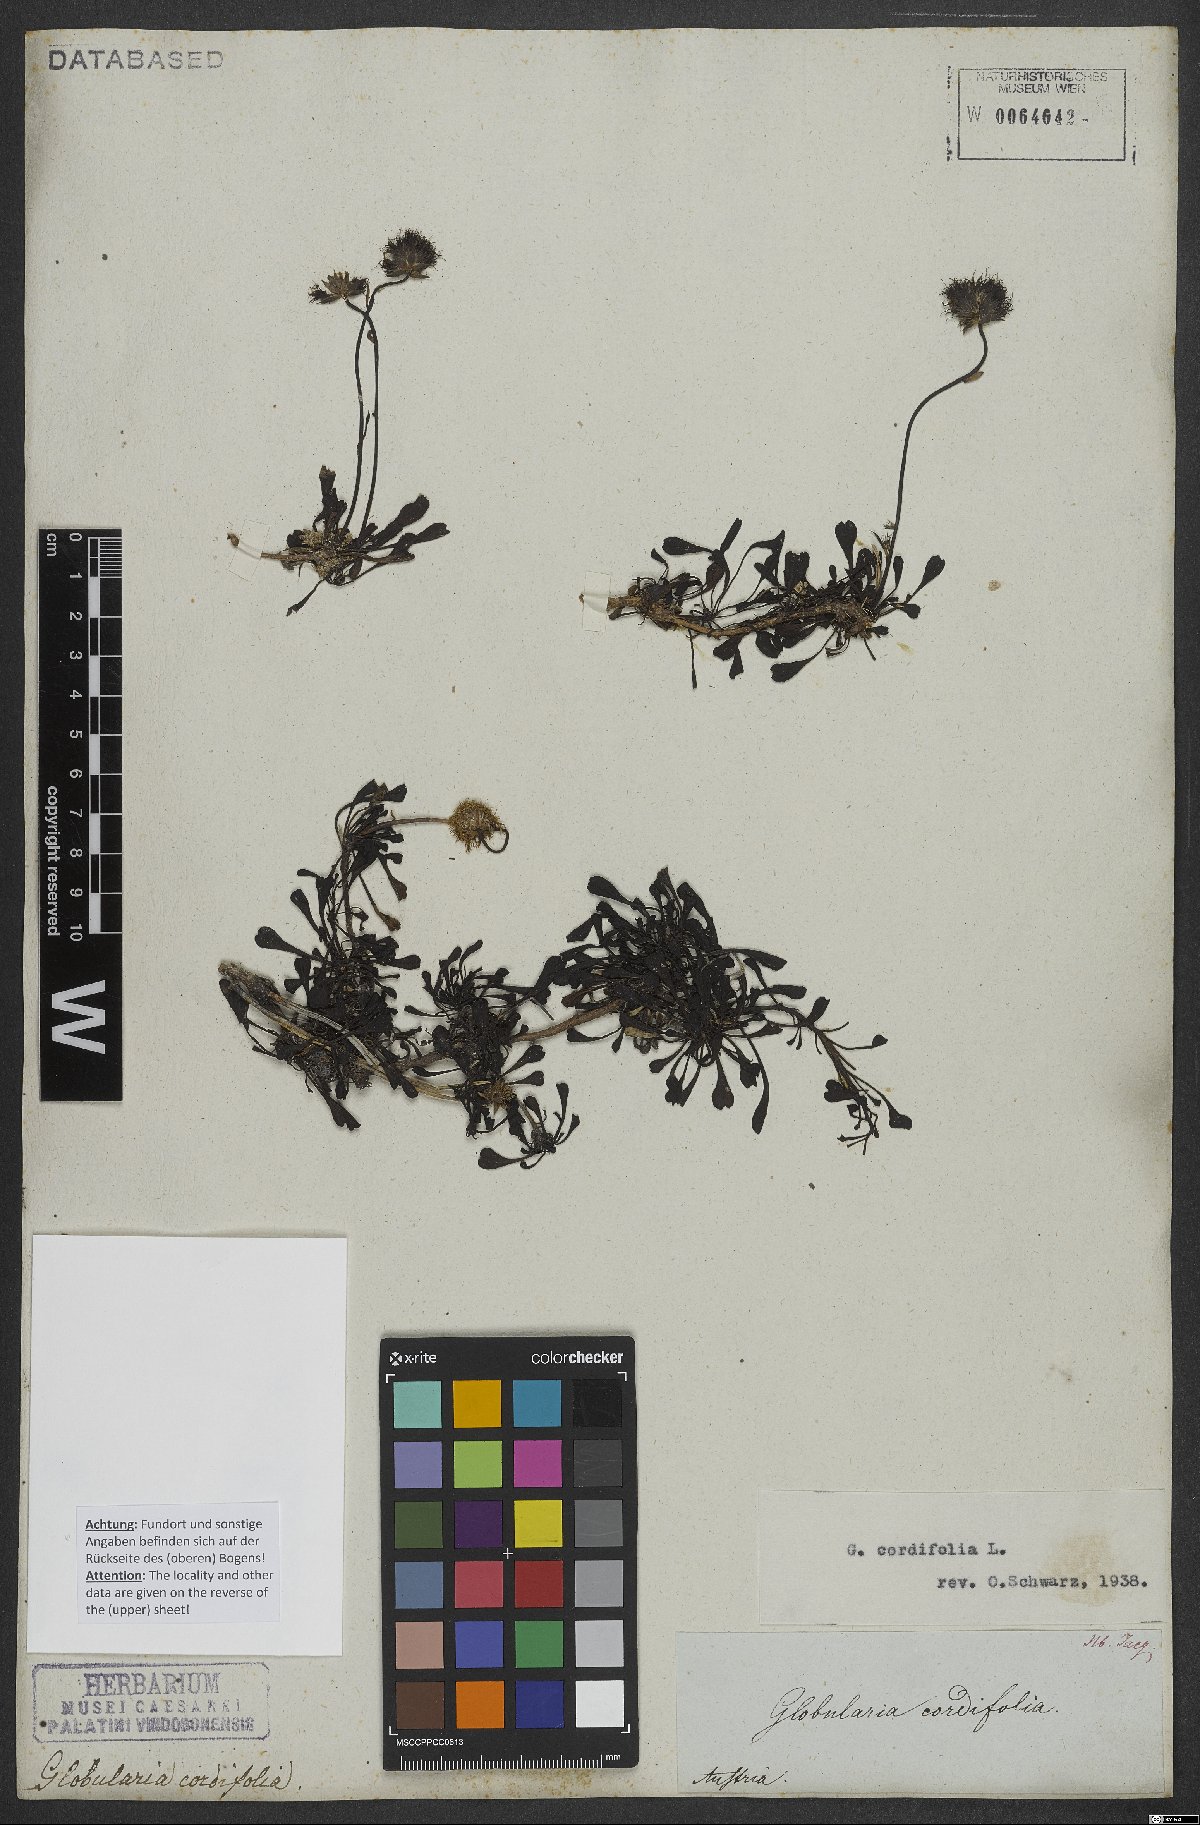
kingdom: Plantae
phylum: Tracheophyta
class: Magnoliopsida
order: Lamiales
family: Plantaginaceae
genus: Globularia
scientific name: Globularia cordifolia
